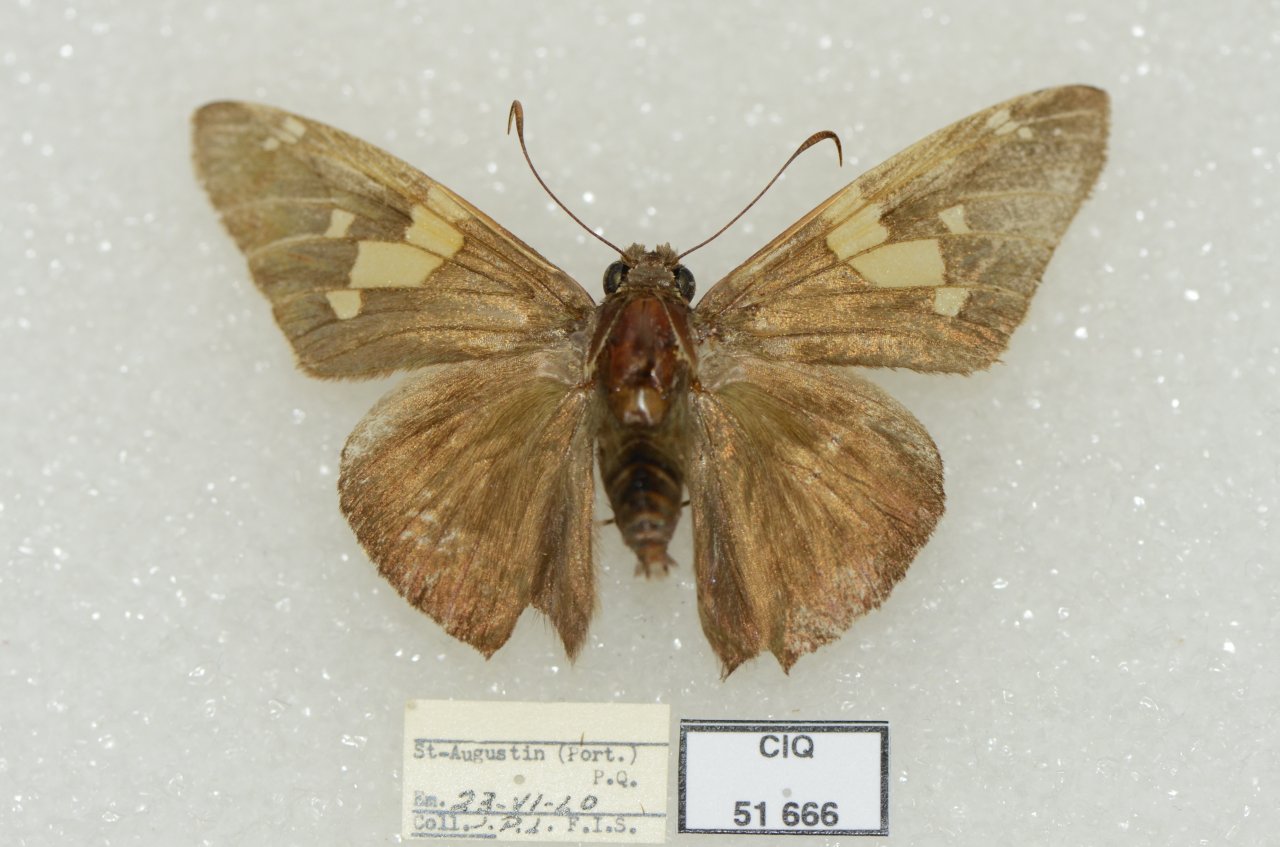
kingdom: Animalia
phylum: Arthropoda
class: Insecta
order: Lepidoptera
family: Hesperiidae
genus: Epargyreus
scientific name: Epargyreus clarus
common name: Silver-spotted Skipper
